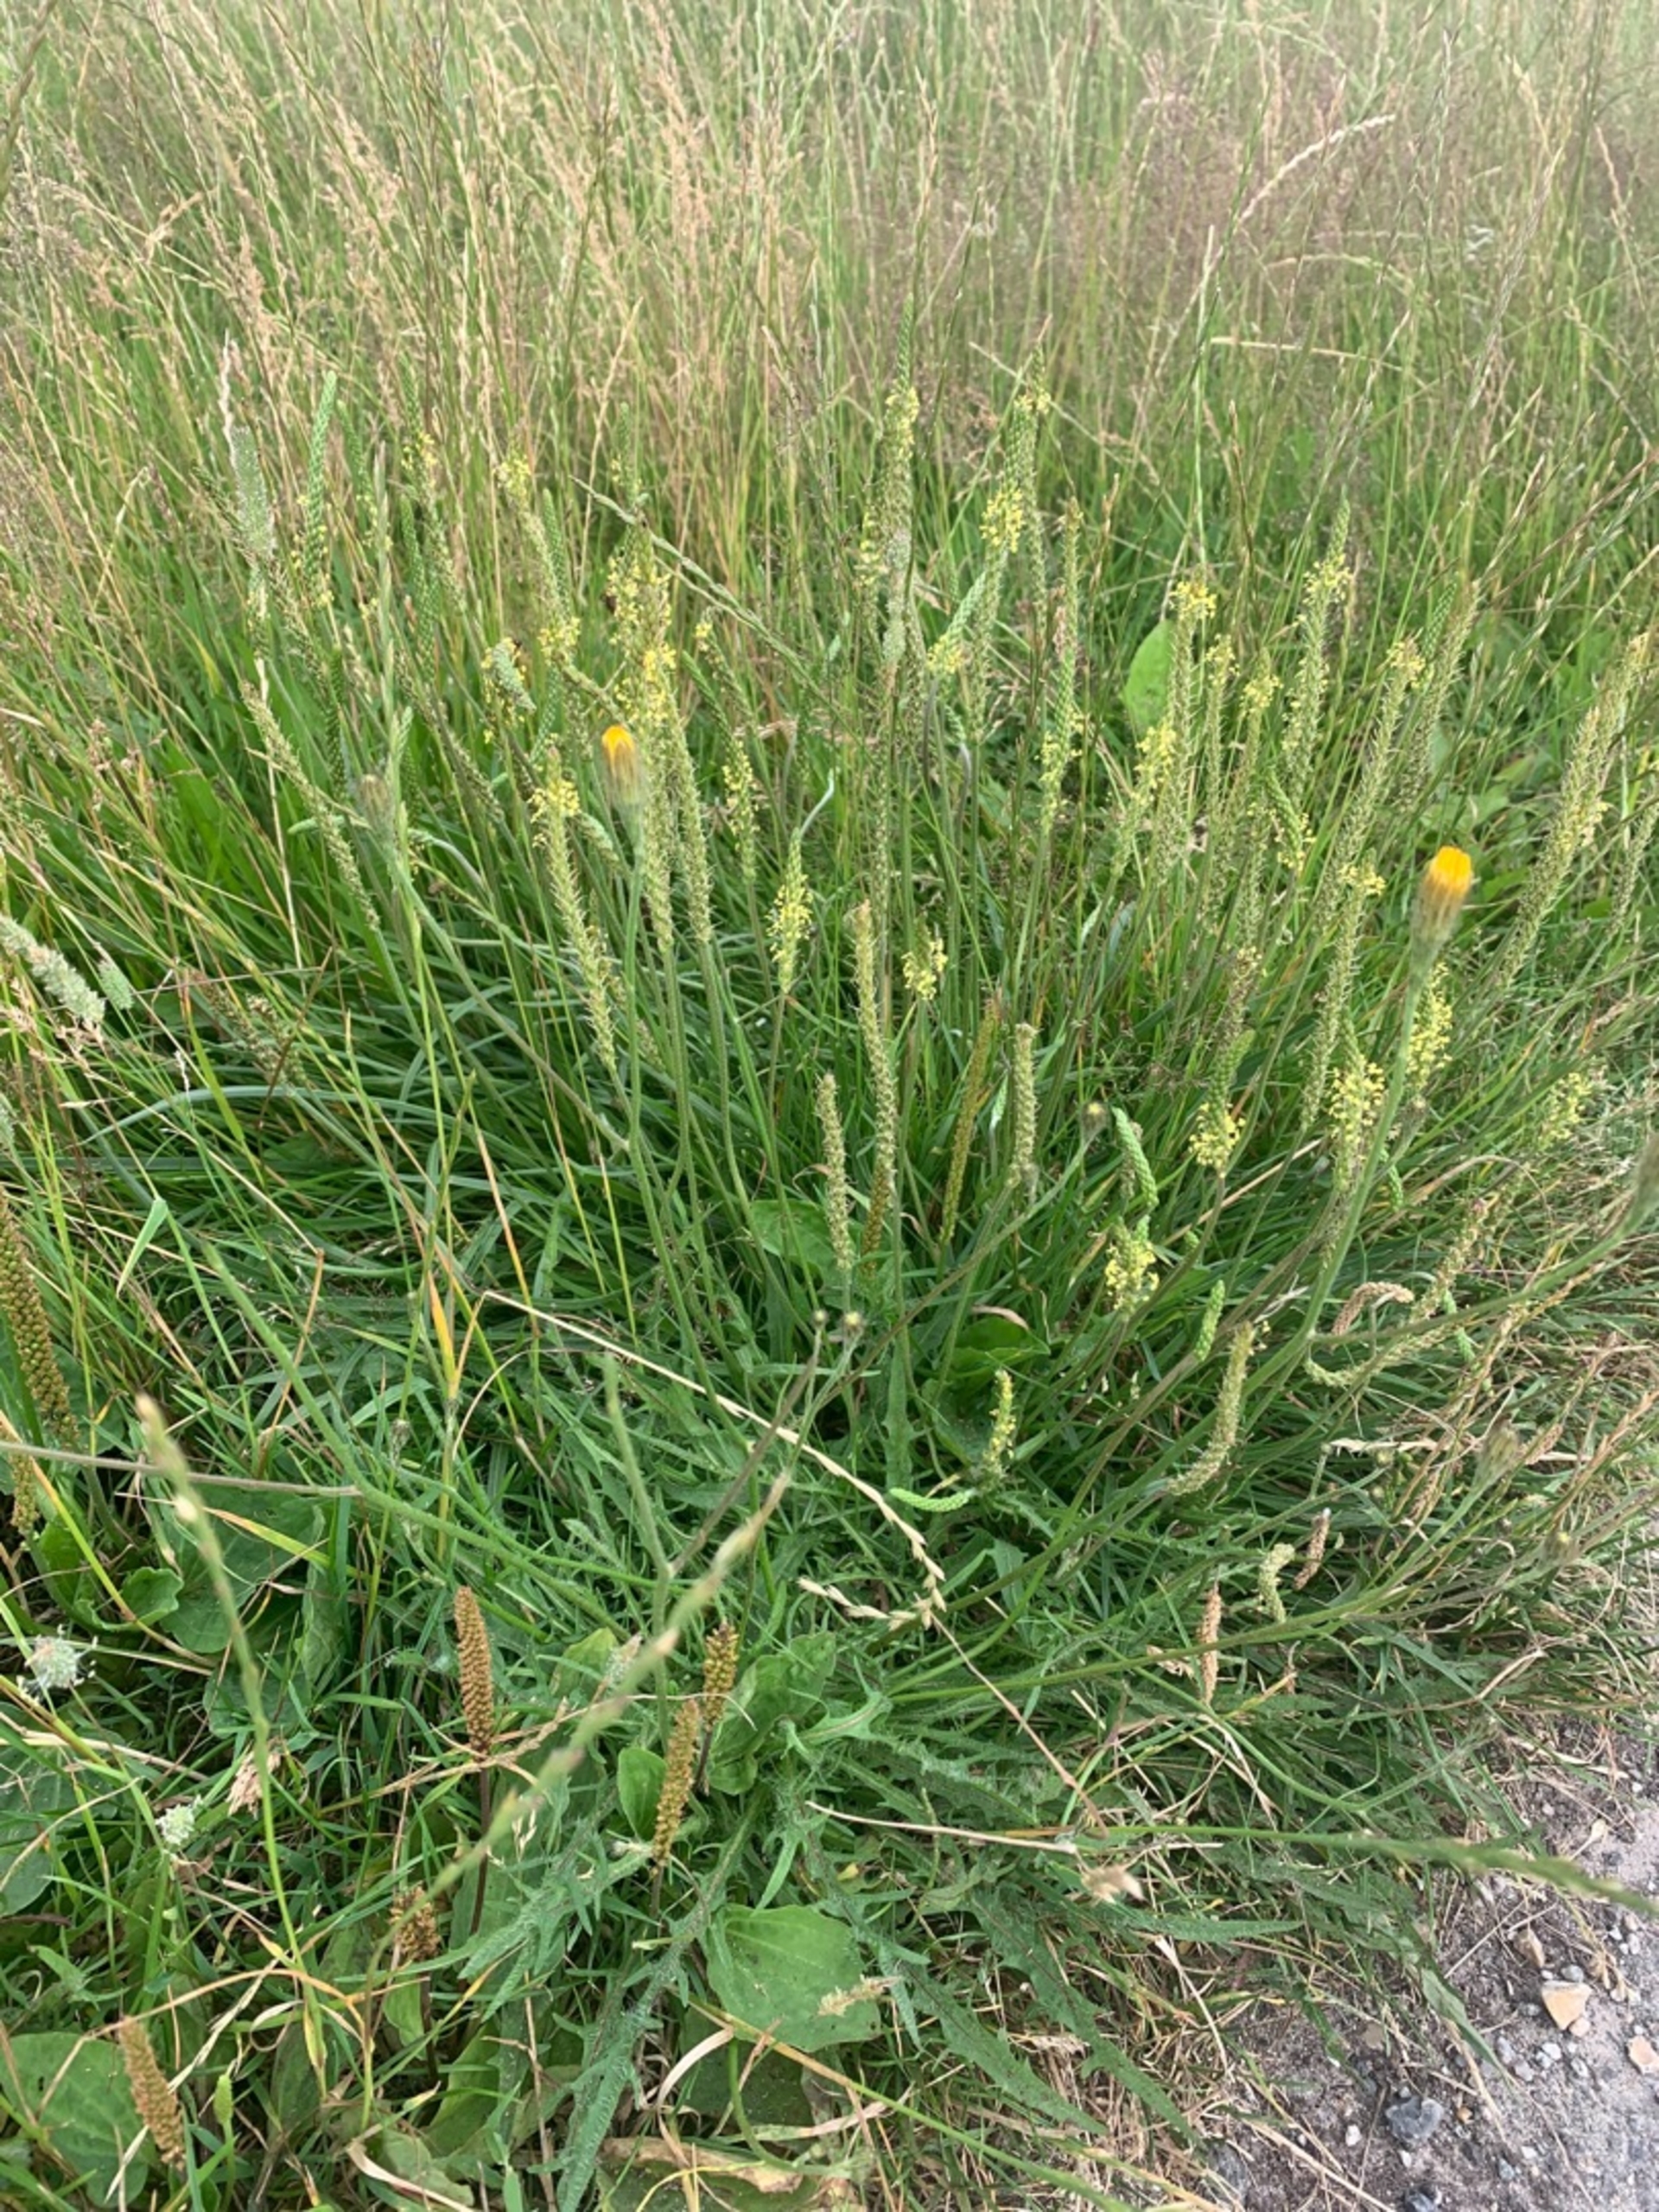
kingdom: Plantae
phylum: Tracheophyta
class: Magnoliopsida
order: Lamiales
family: Plantaginaceae
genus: Plantago
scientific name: Plantago maritima
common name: Strand-vejbred
